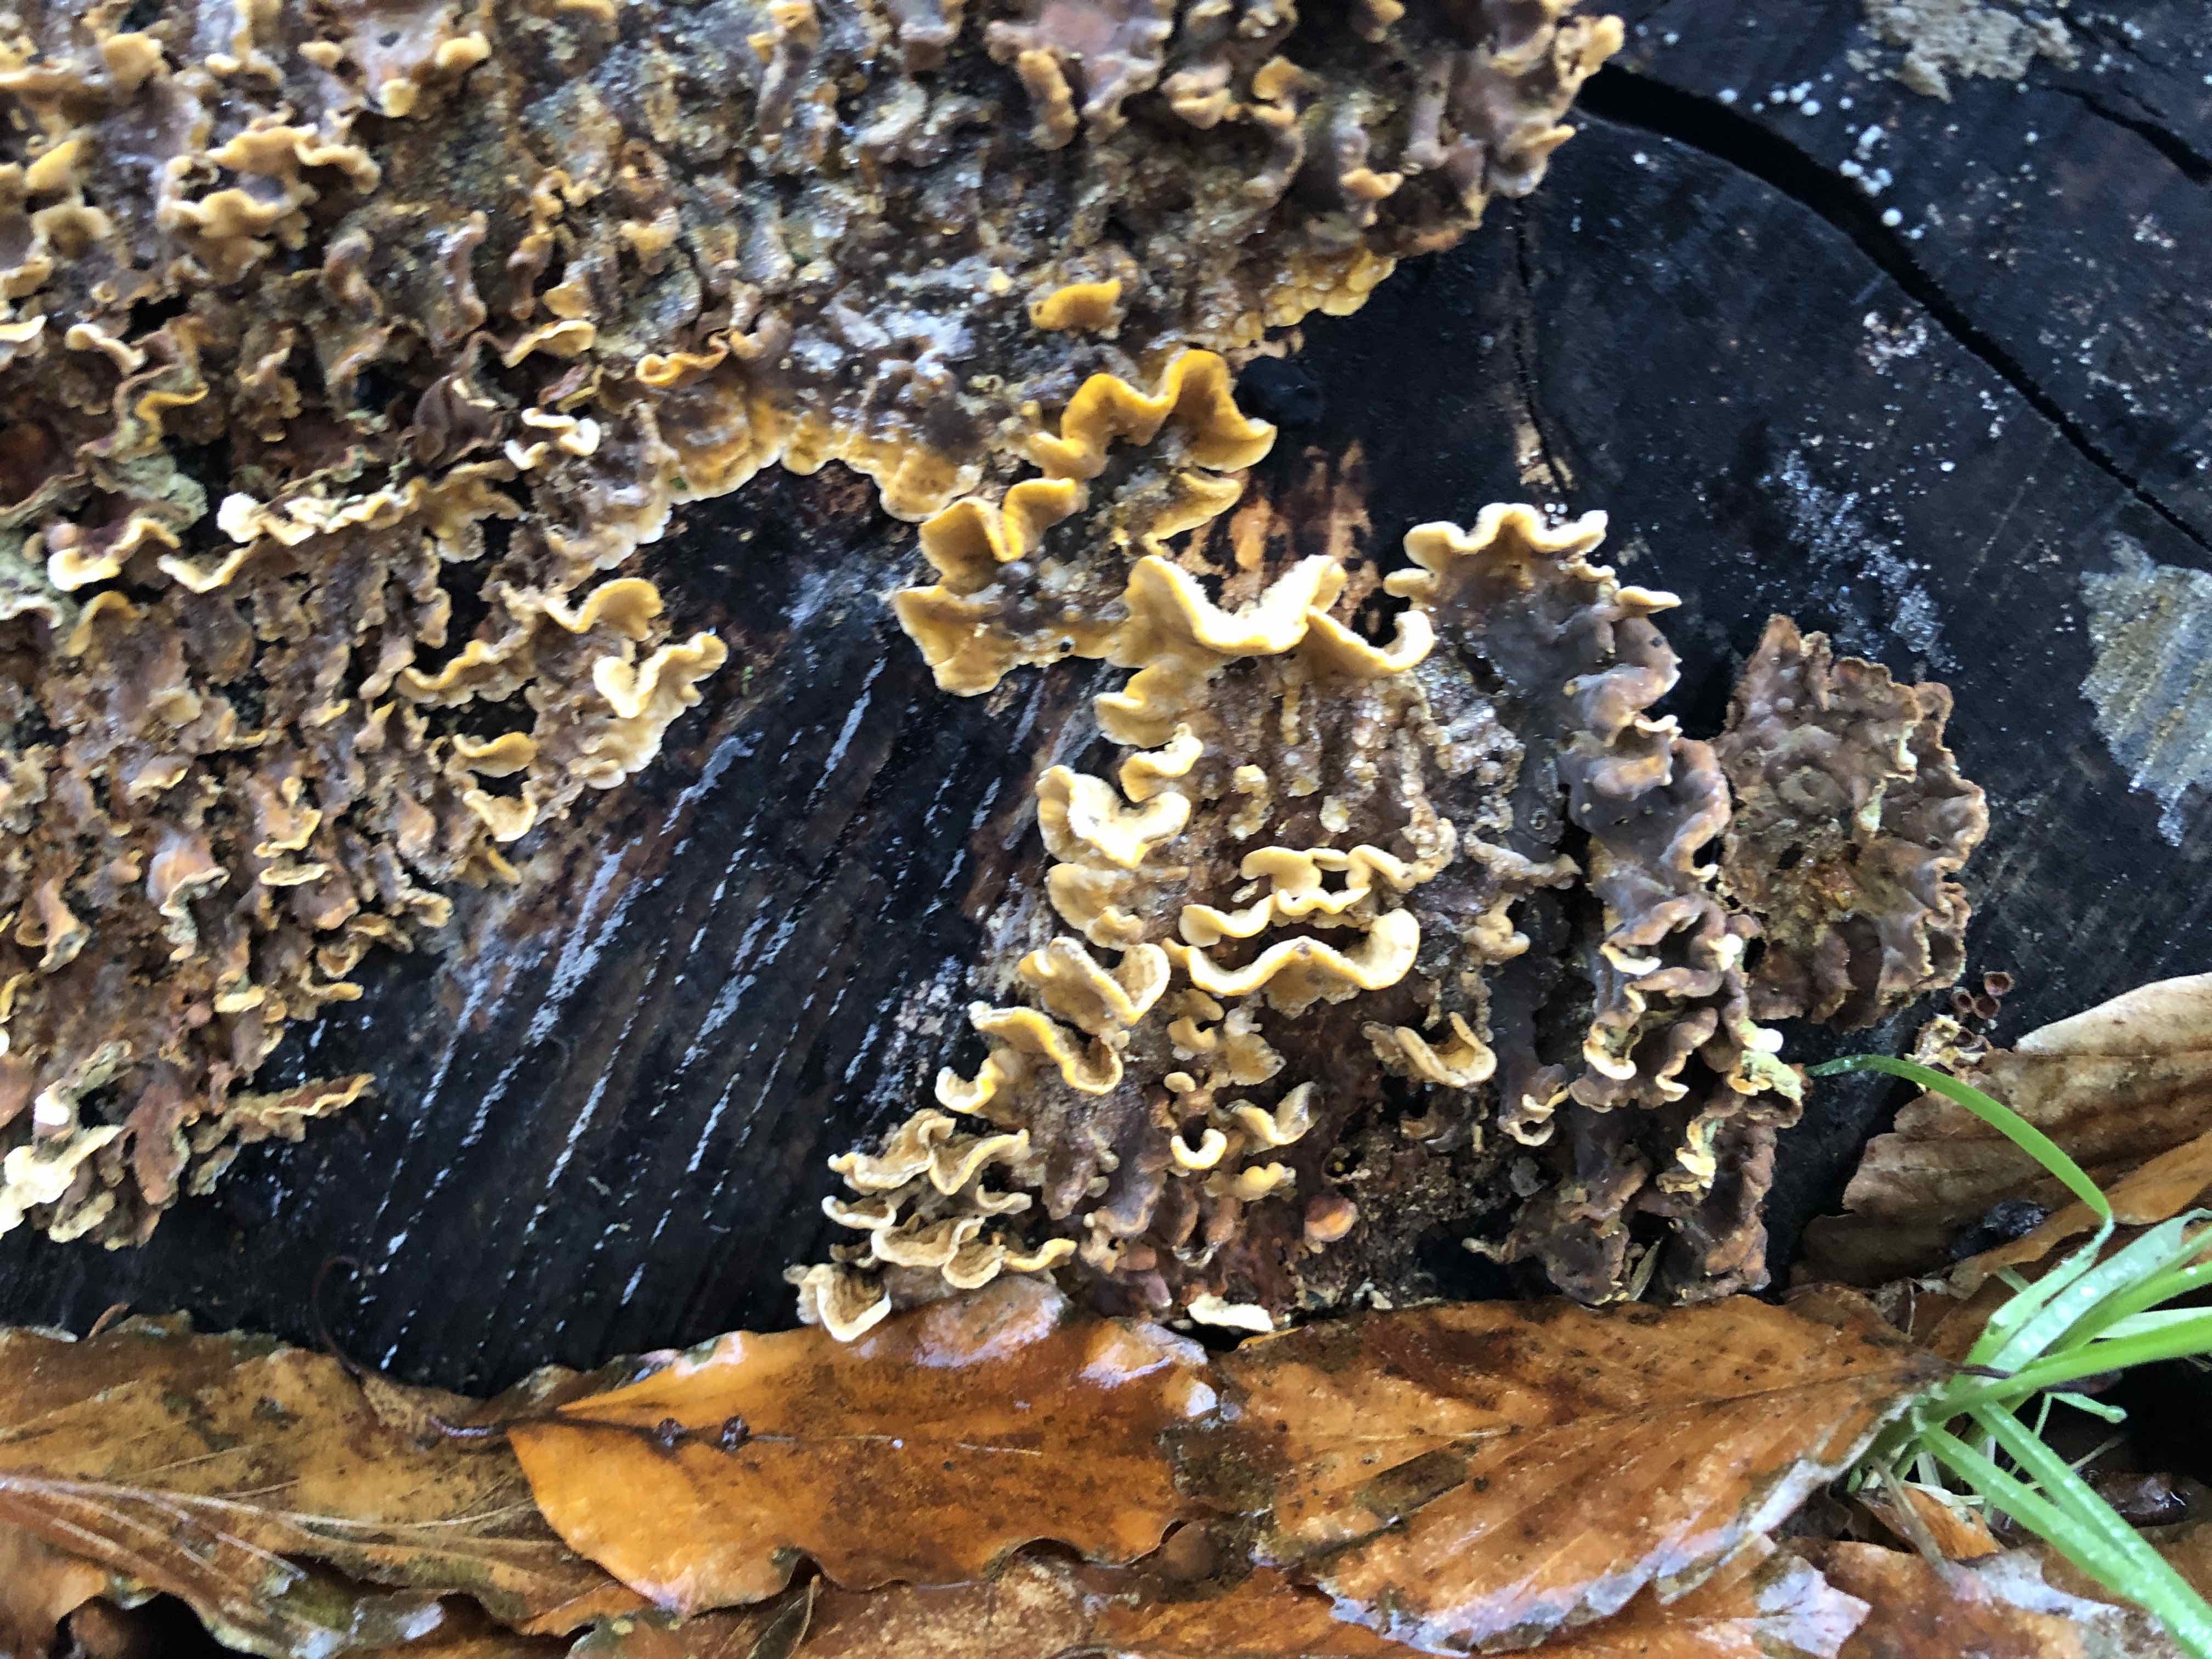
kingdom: Fungi
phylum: Basidiomycota
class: Agaricomycetes
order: Russulales
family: Stereaceae
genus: Stereum
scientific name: Stereum hirsutum
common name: håret lædersvamp
